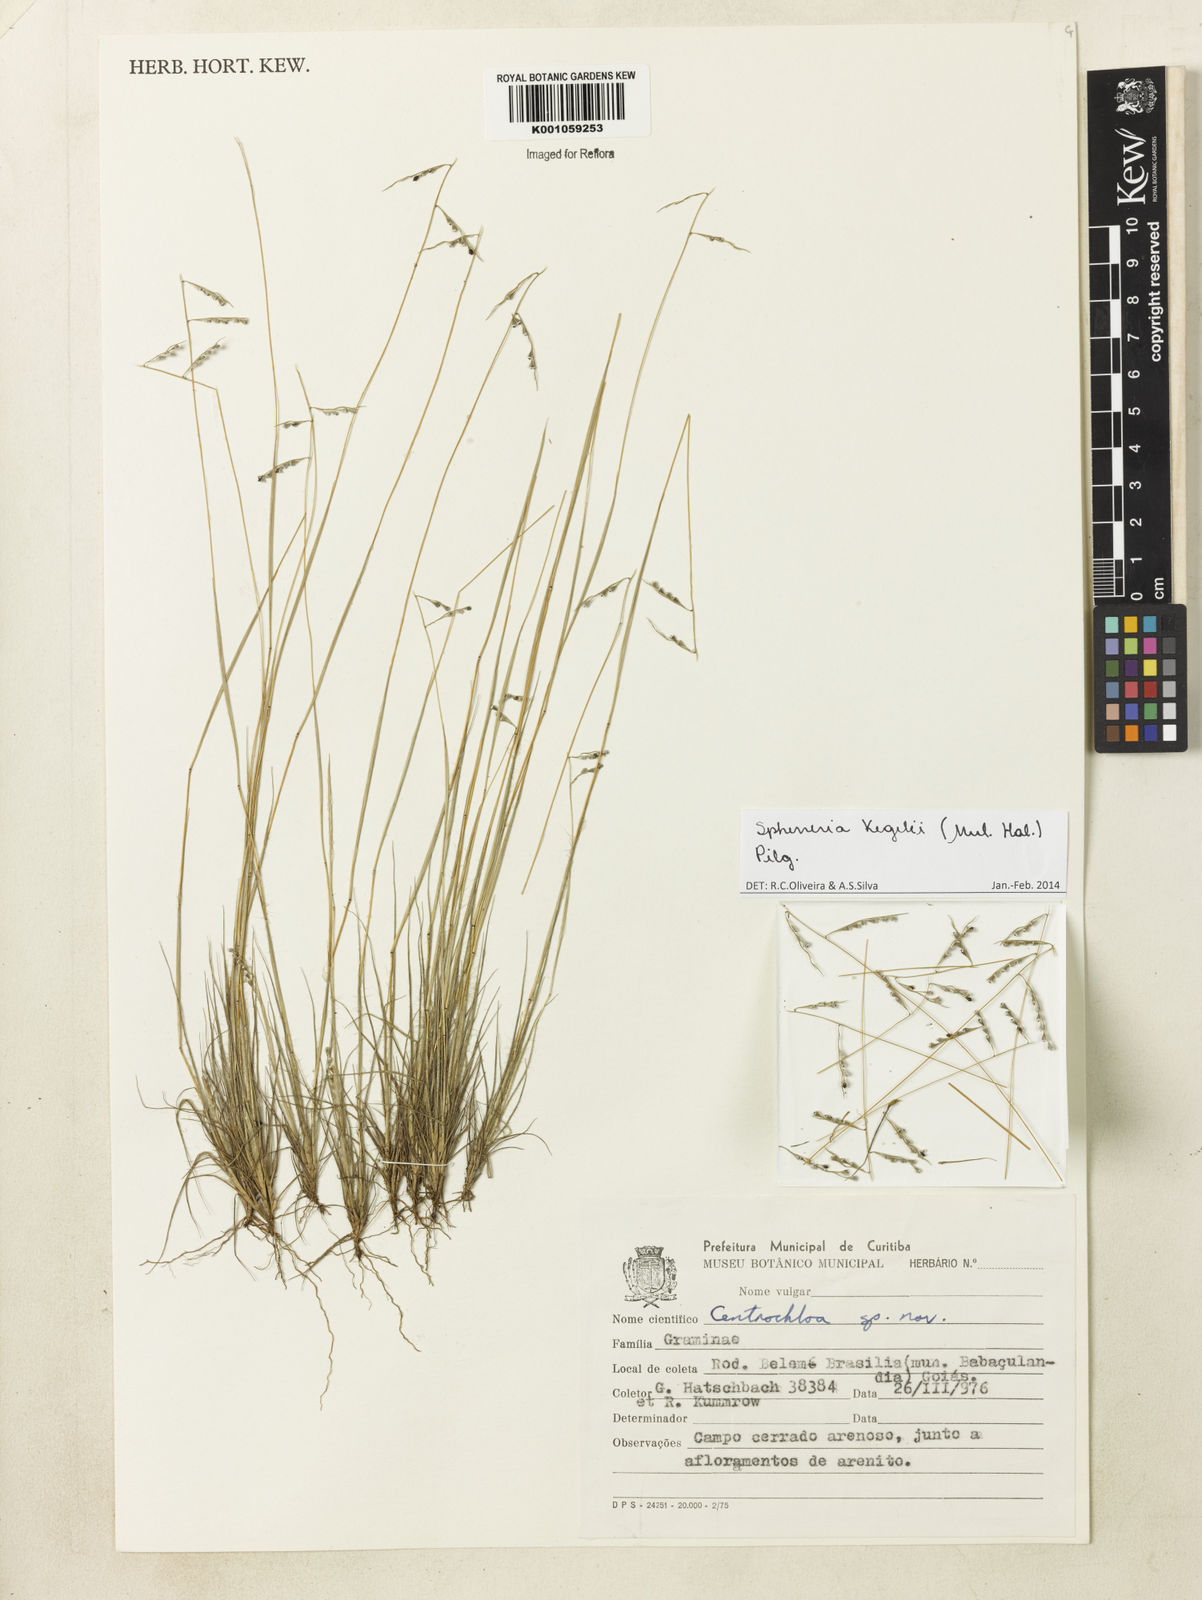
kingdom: Plantae
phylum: Tracheophyta
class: Liliopsida
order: Poales
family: Poaceae
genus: Spheneria
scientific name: Spheneria
